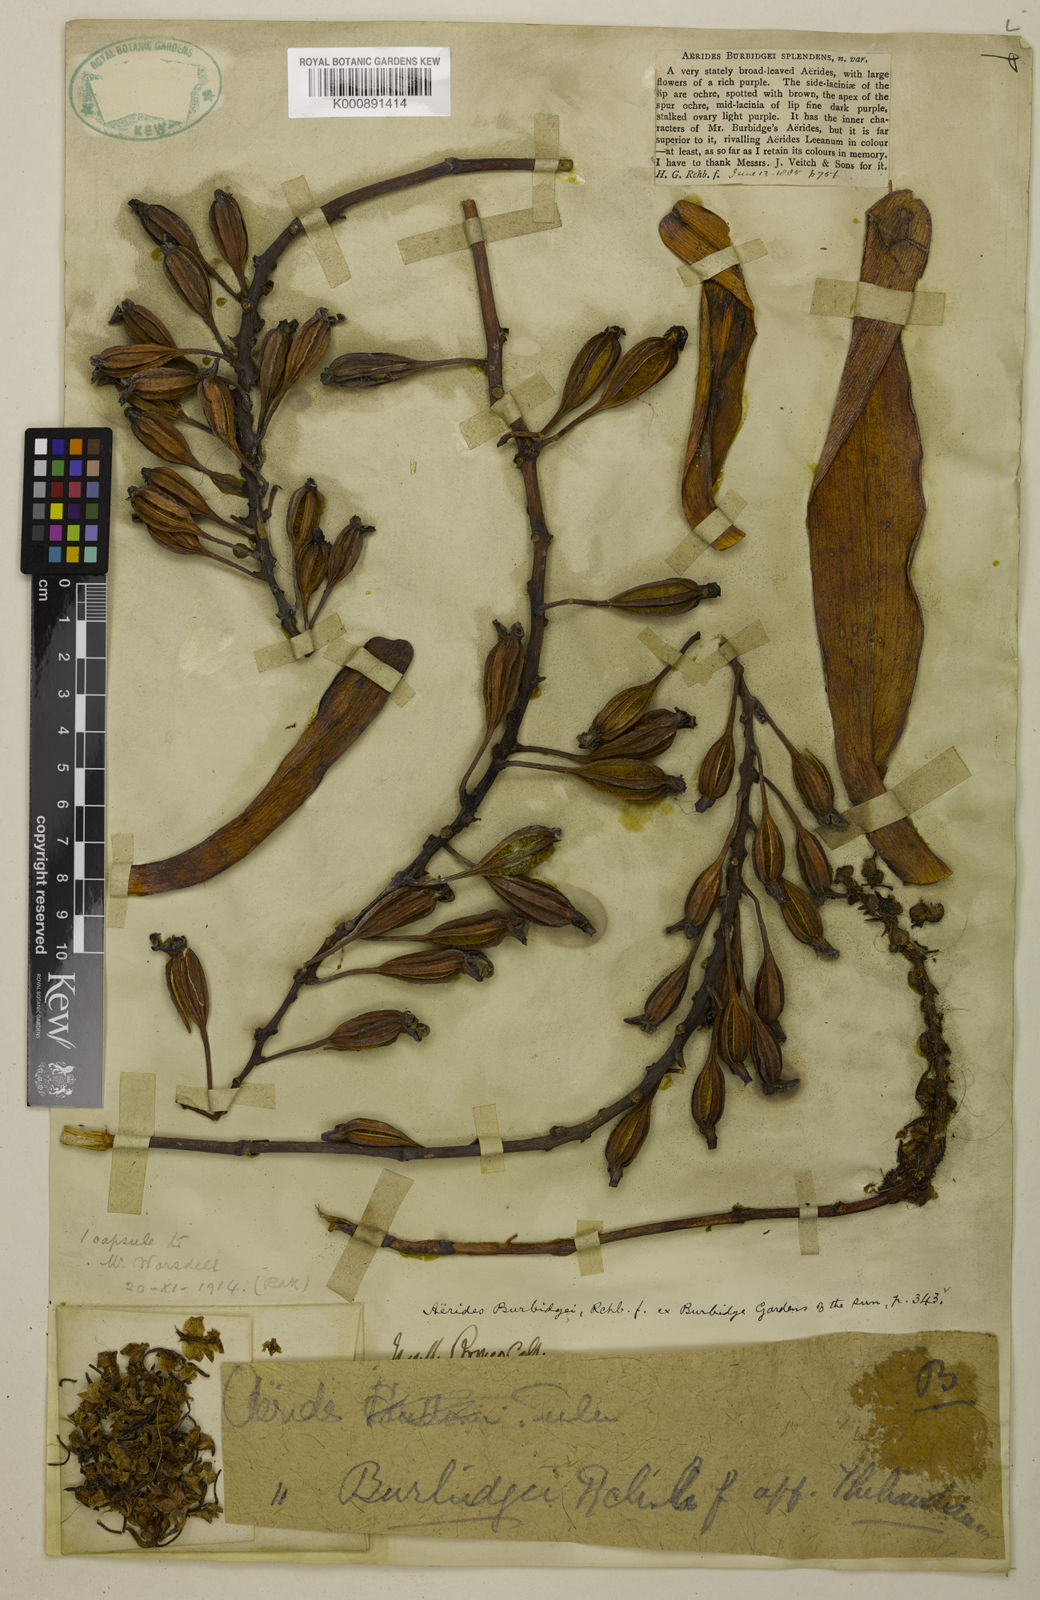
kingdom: Plantae
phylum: Tracheophyta
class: Liliopsida
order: Asparagales
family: Orchidaceae
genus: Aerides
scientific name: Aerides burbidgei
